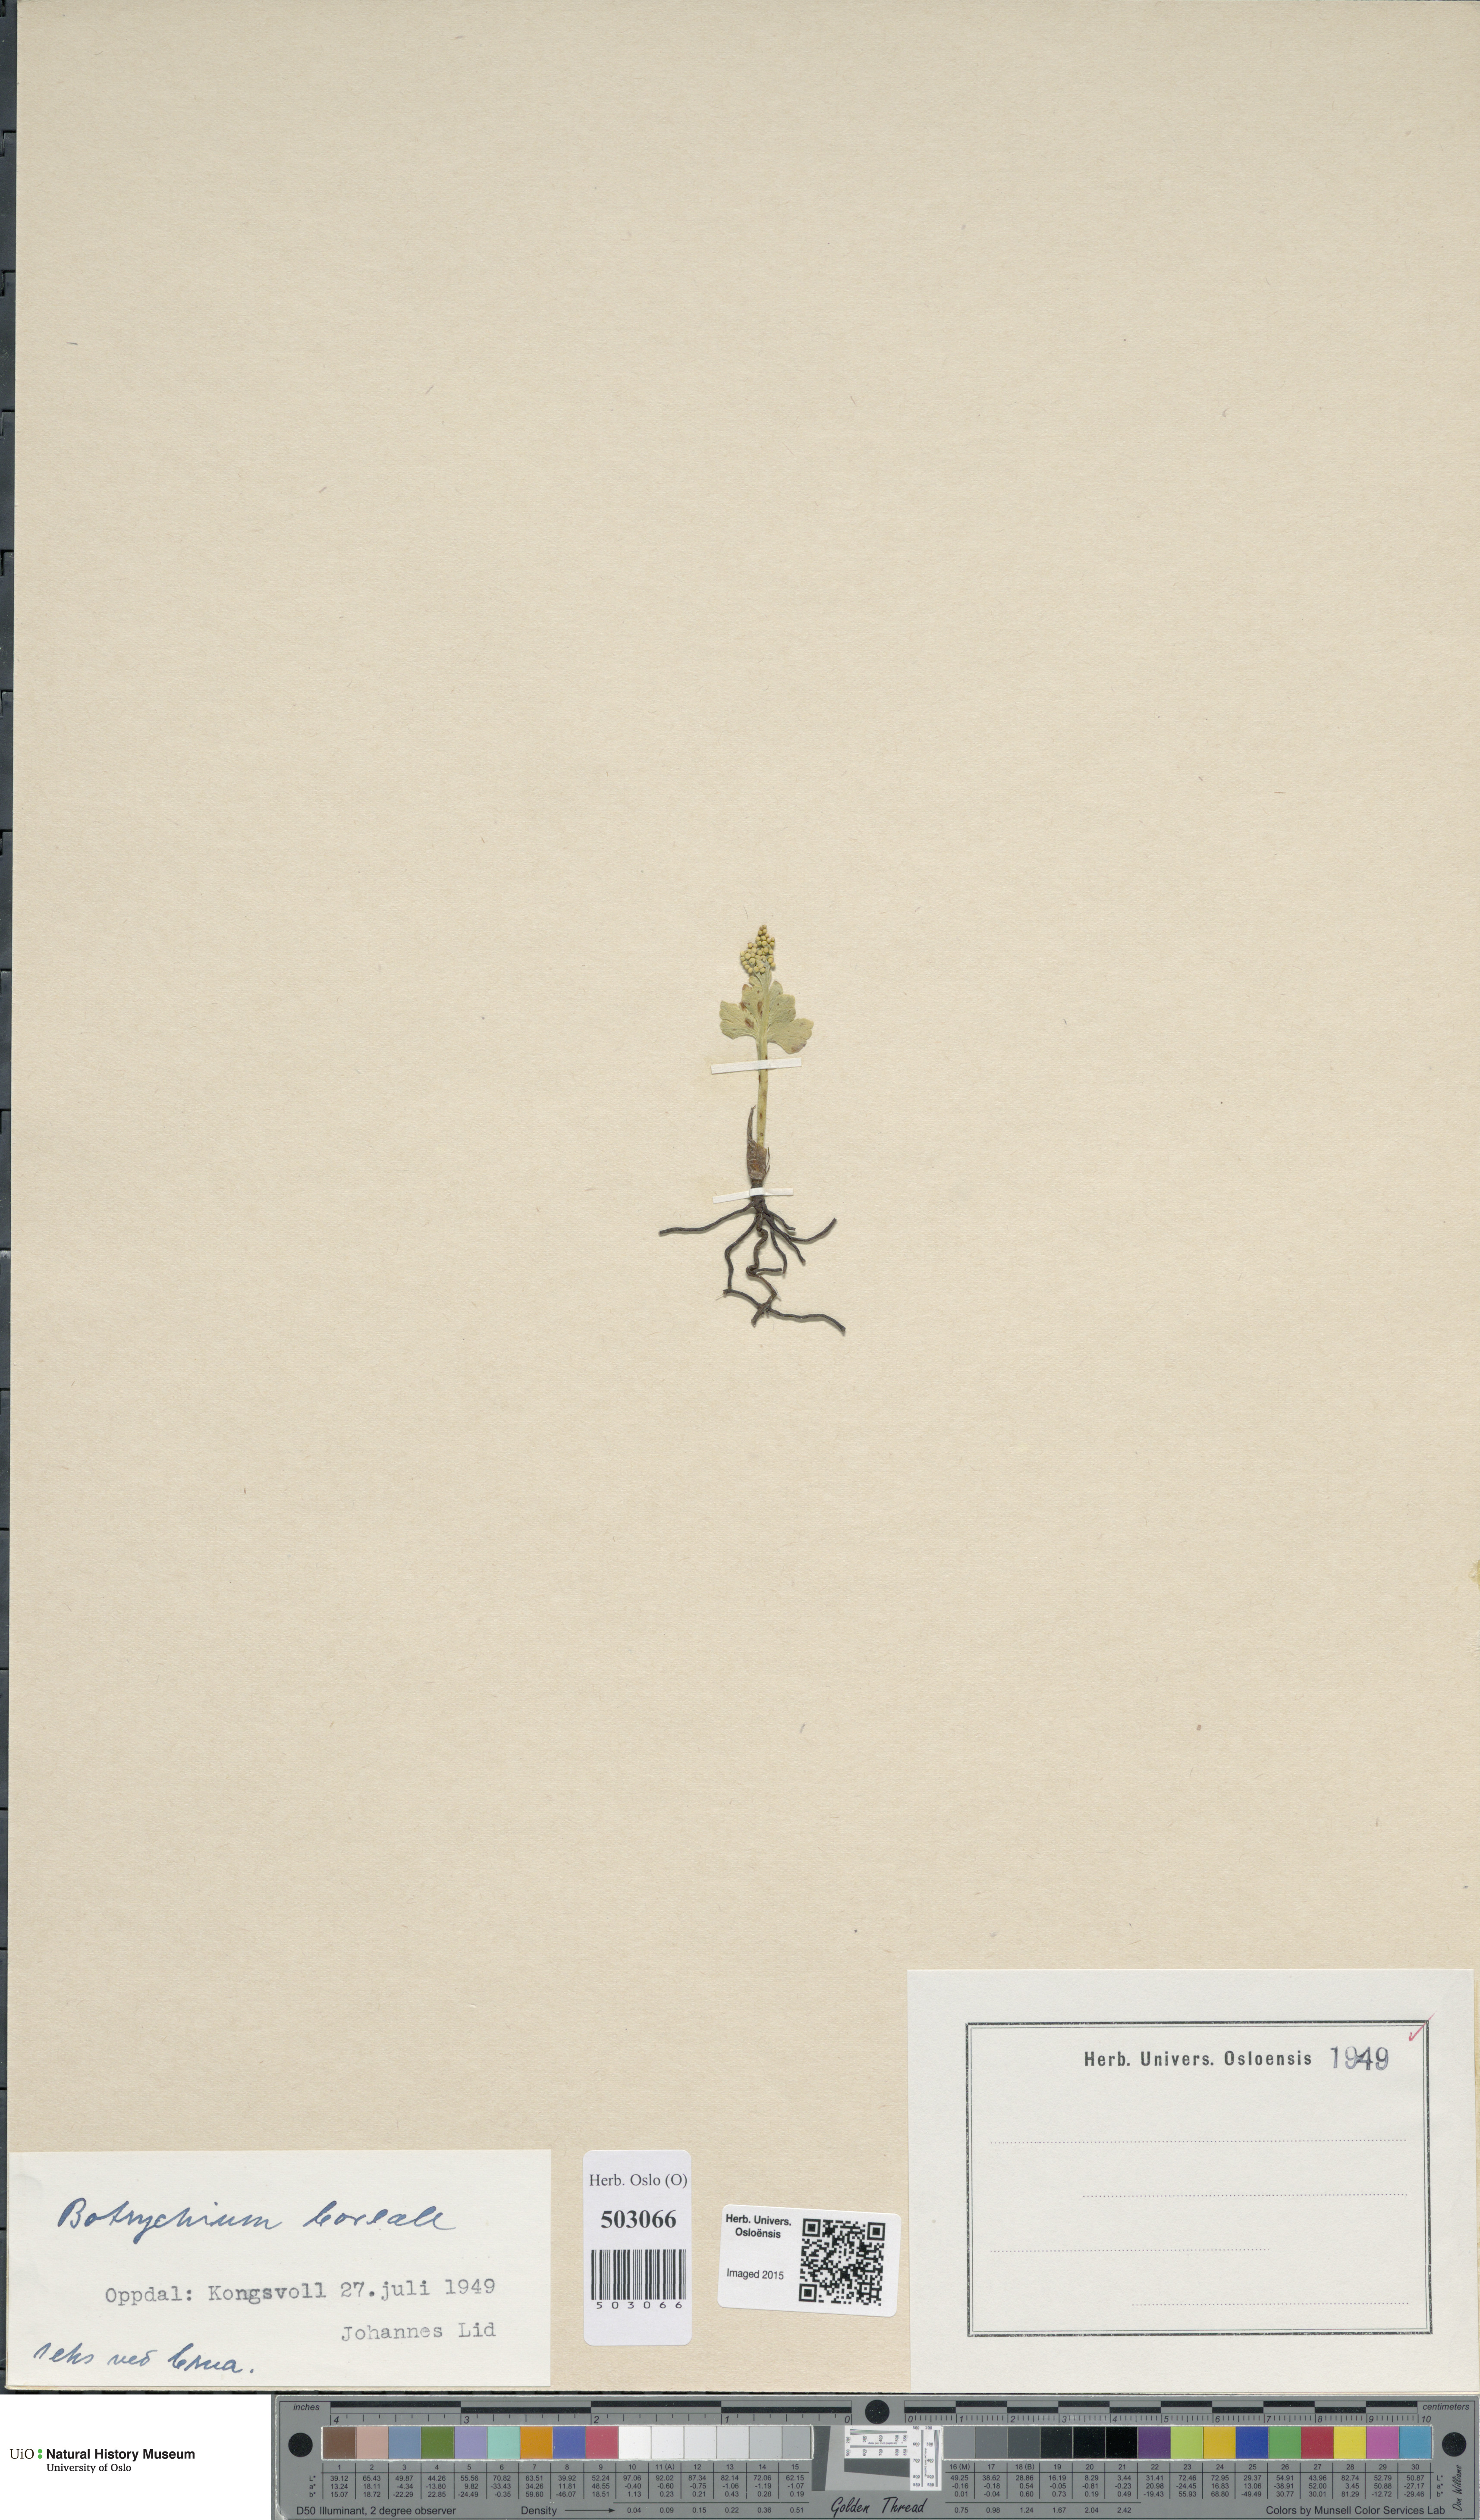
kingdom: Plantae
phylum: Tracheophyta
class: Polypodiopsida
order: Ophioglossales
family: Ophioglossaceae
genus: Botrychium
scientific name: Botrychium boreale
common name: Boreal moonwort
